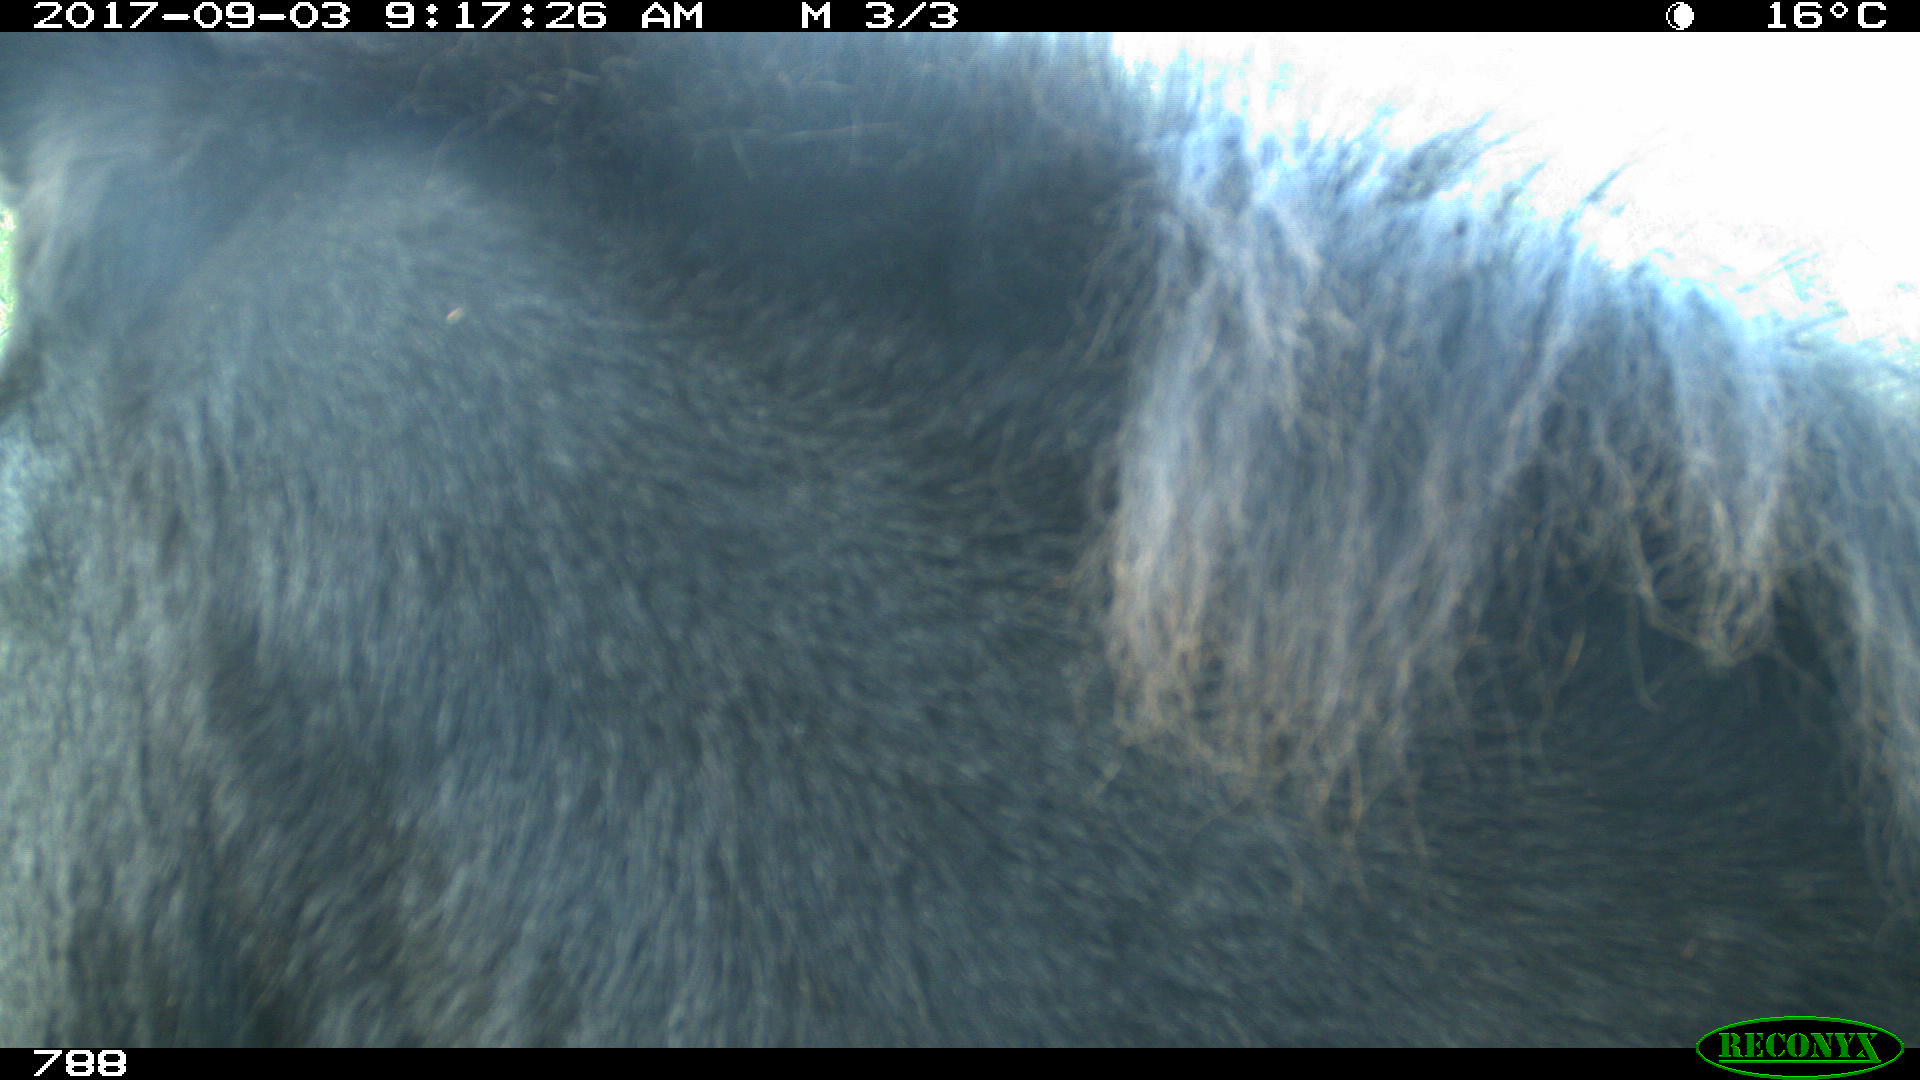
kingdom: Animalia
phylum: Chordata
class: Mammalia
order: Perissodactyla
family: Equidae
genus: Equus
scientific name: Equus caballus
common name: Horse
